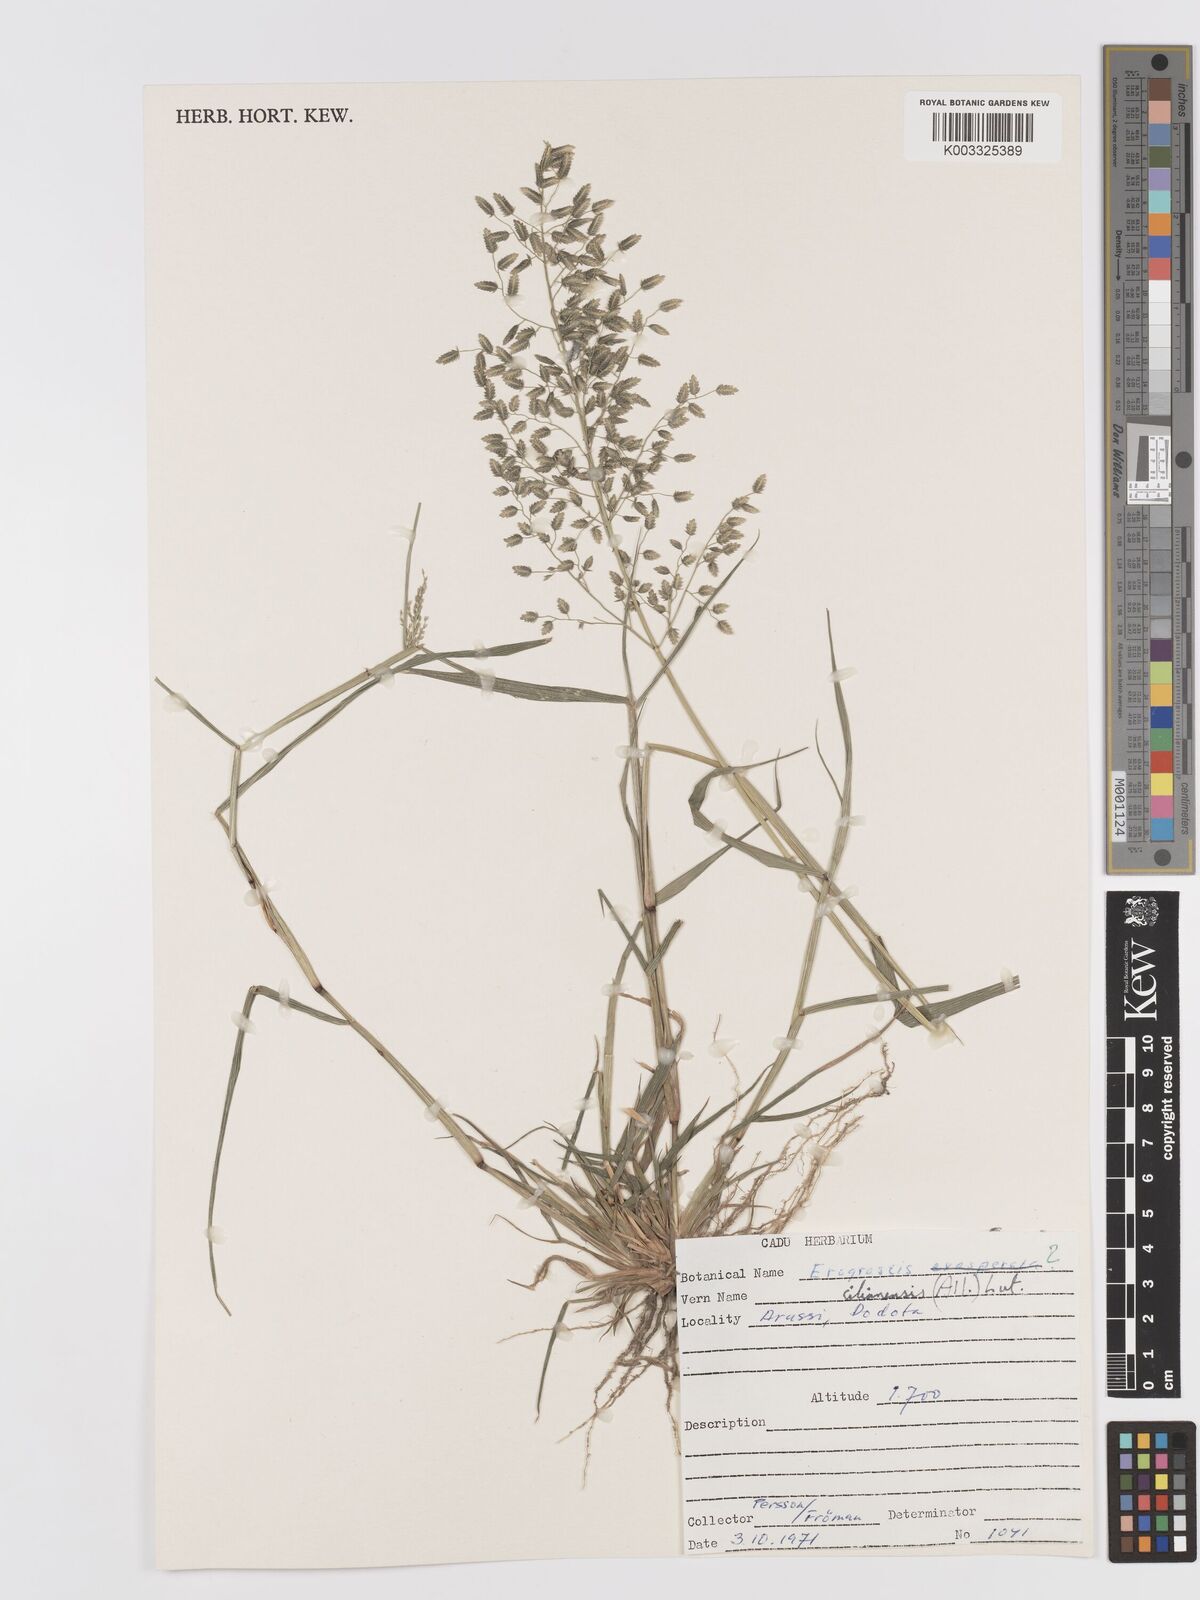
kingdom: Plantae
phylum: Tracheophyta
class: Liliopsida
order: Poales
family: Poaceae
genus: Eragrostis
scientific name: Eragrostis cilianensis
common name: Stinkgrass
